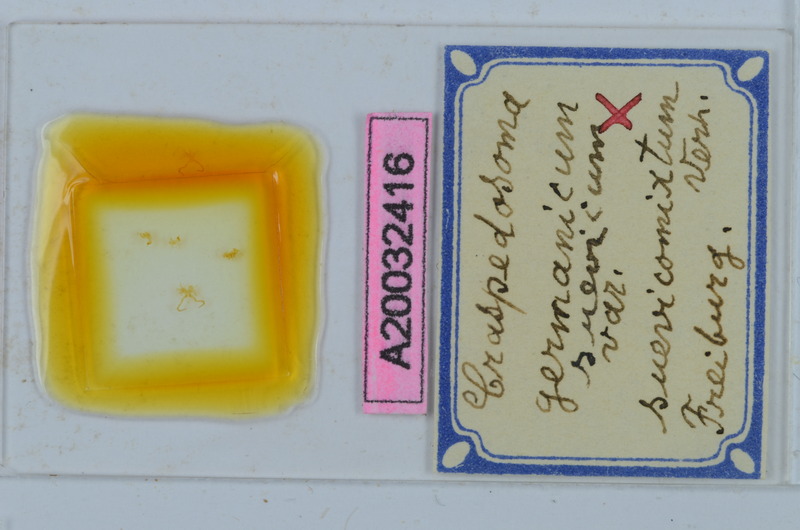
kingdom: Animalia
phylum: Arthropoda
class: Diplopoda
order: Chordeumatida
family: Craspedosomatidae
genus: Craspedosoma
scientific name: Craspedosoma rawlinsii
